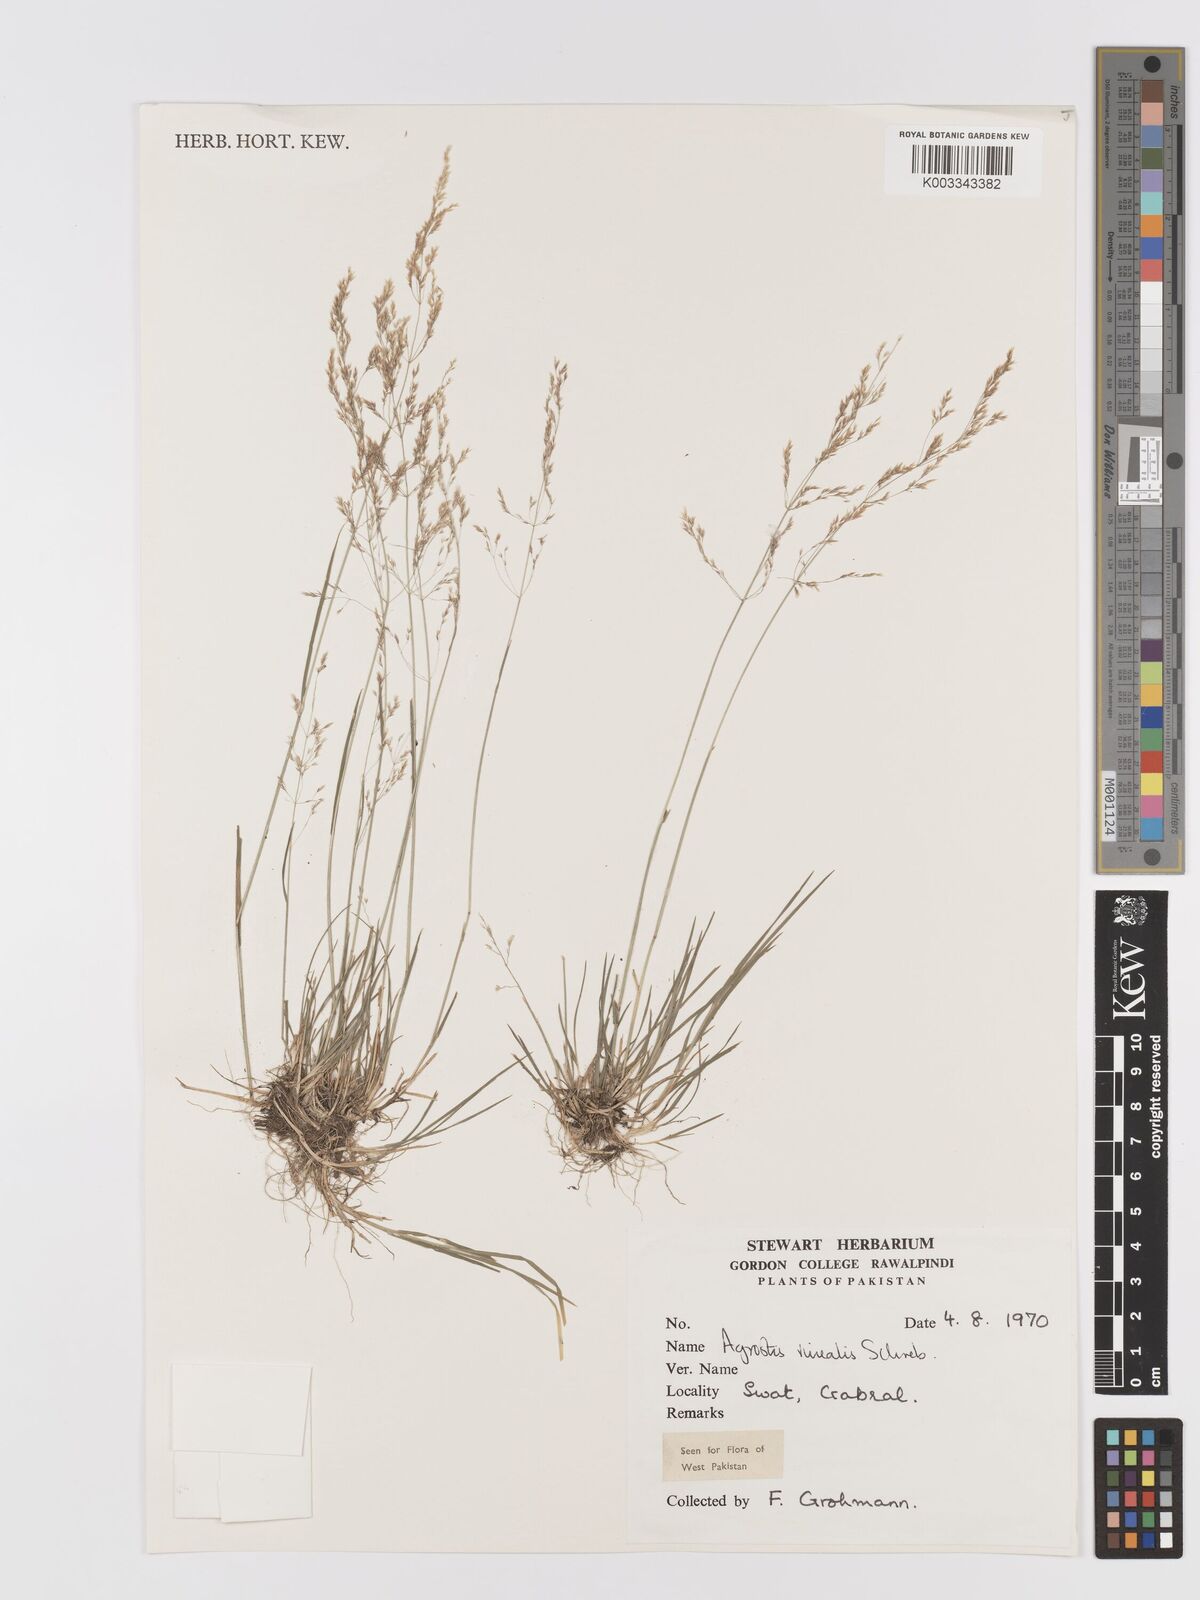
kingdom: Plantae
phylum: Tracheophyta
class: Liliopsida
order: Poales
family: Poaceae
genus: Agrostis
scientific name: Agrostis vinealis
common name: Brown bent
